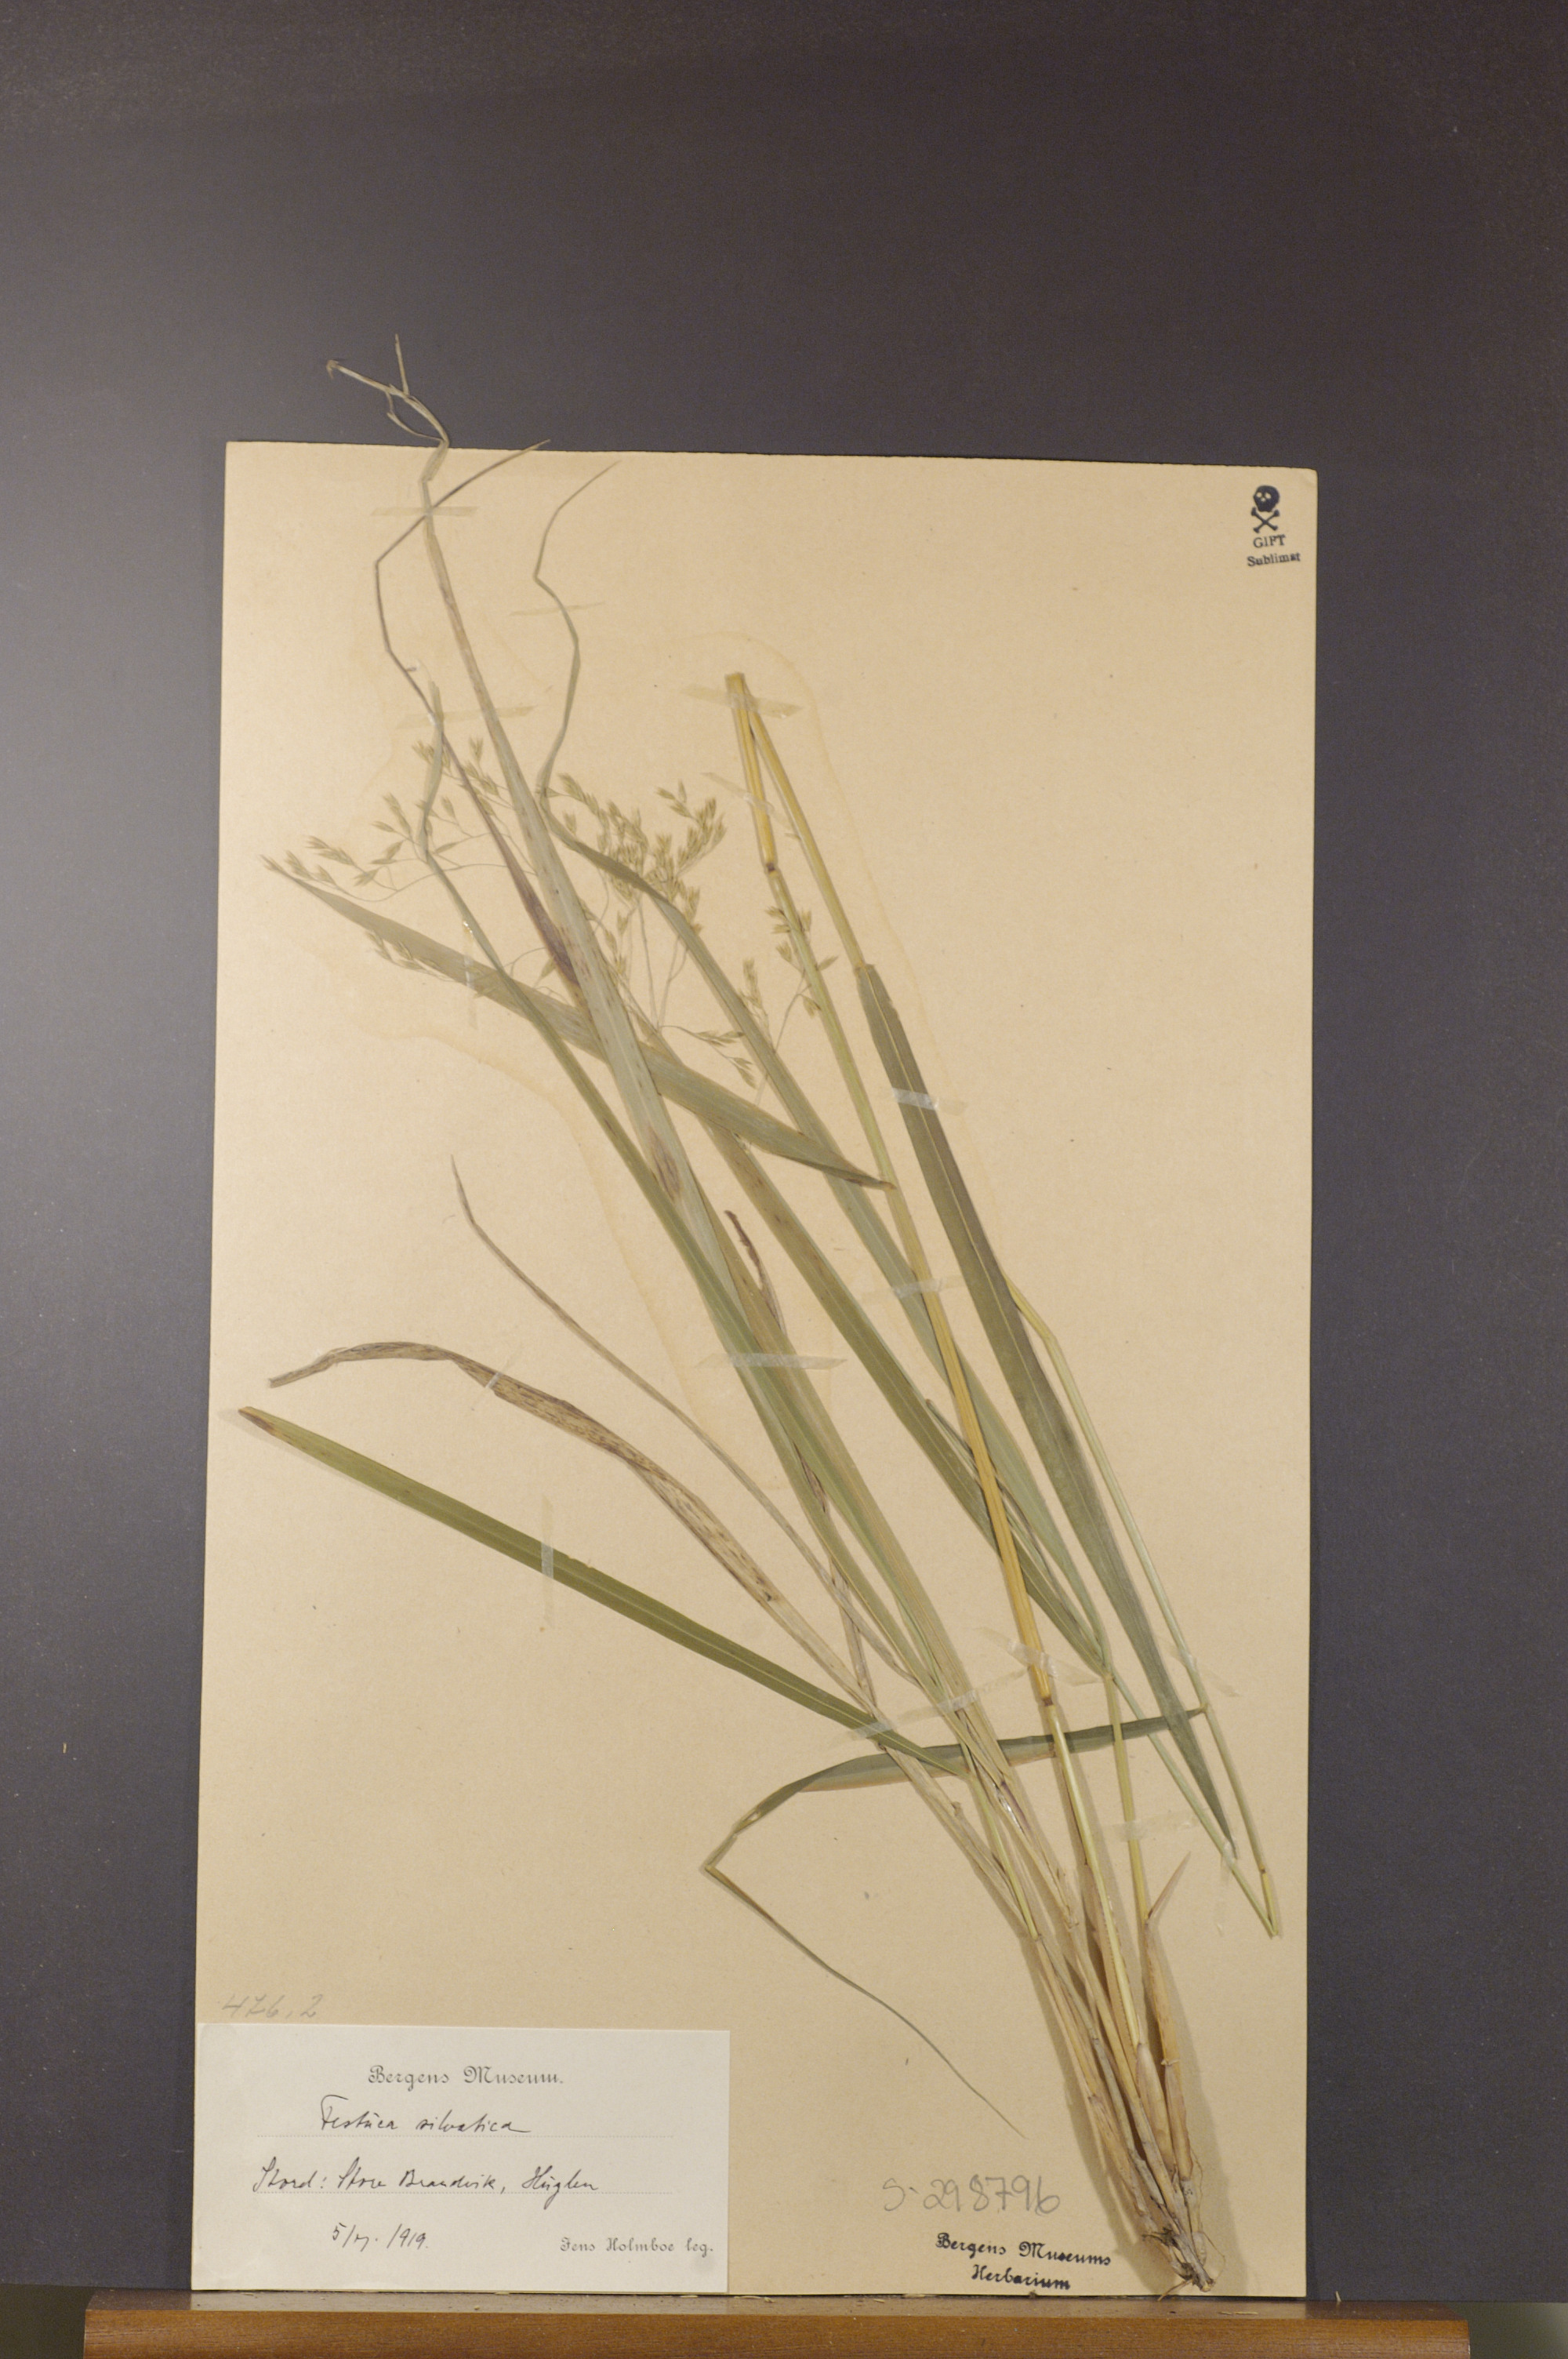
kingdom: Plantae
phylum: Tracheophyta
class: Liliopsida
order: Poales
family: Poaceae
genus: Festuca
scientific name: Festuca altissima
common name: Wood fescue
